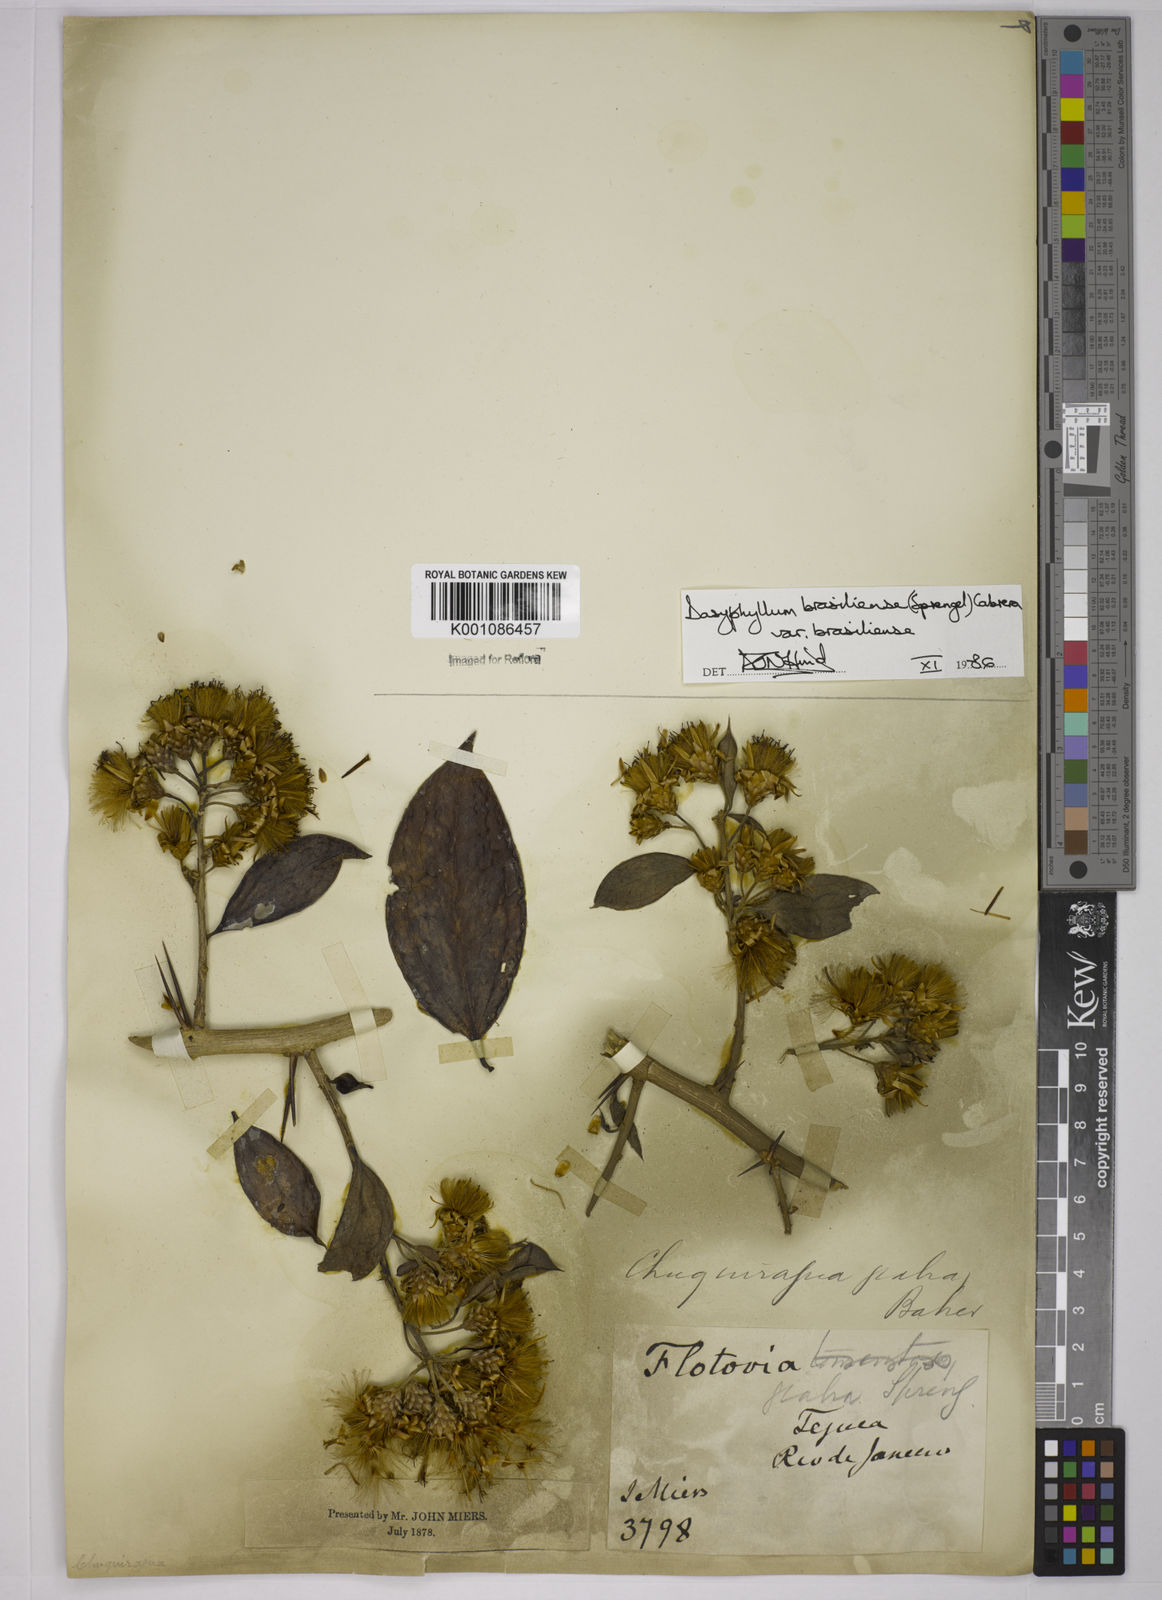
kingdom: Plantae
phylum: Tracheophyta
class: Magnoliopsida
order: Asterales
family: Asteraceae
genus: Dasyphyllum
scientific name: Dasyphyllum brasiliense
